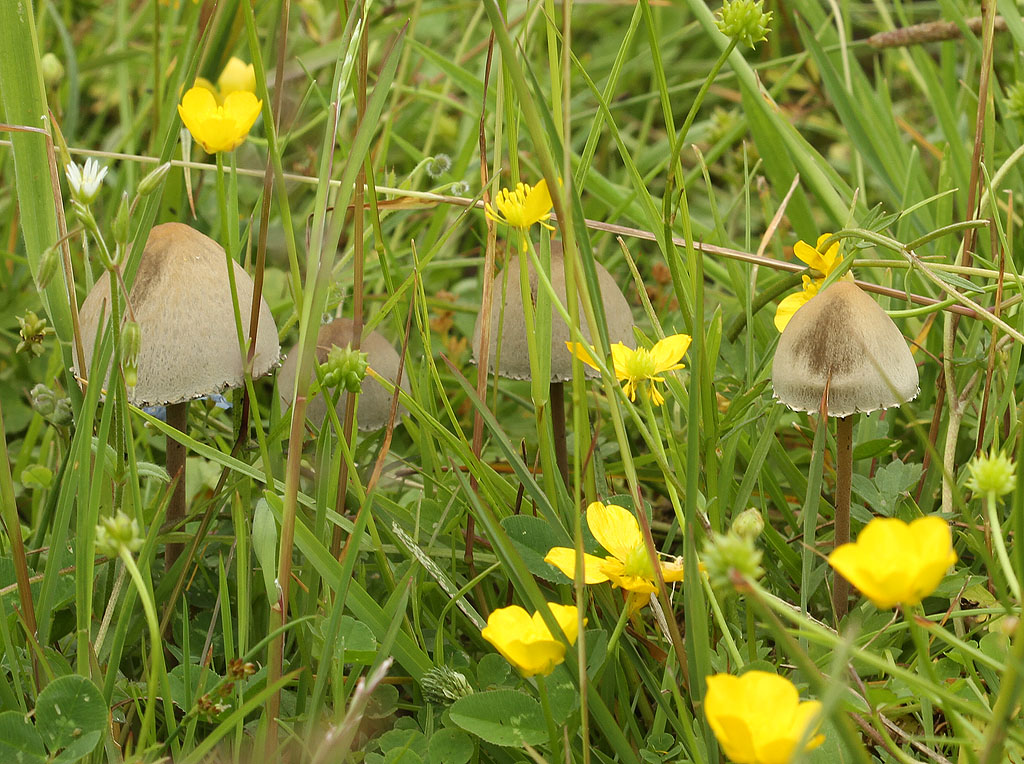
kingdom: Fungi
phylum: Basidiomycota
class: Agaricomycetes
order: Agaricales
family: Bolbitiaceae
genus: Panaeolus
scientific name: Panaeolus papilionaceus
